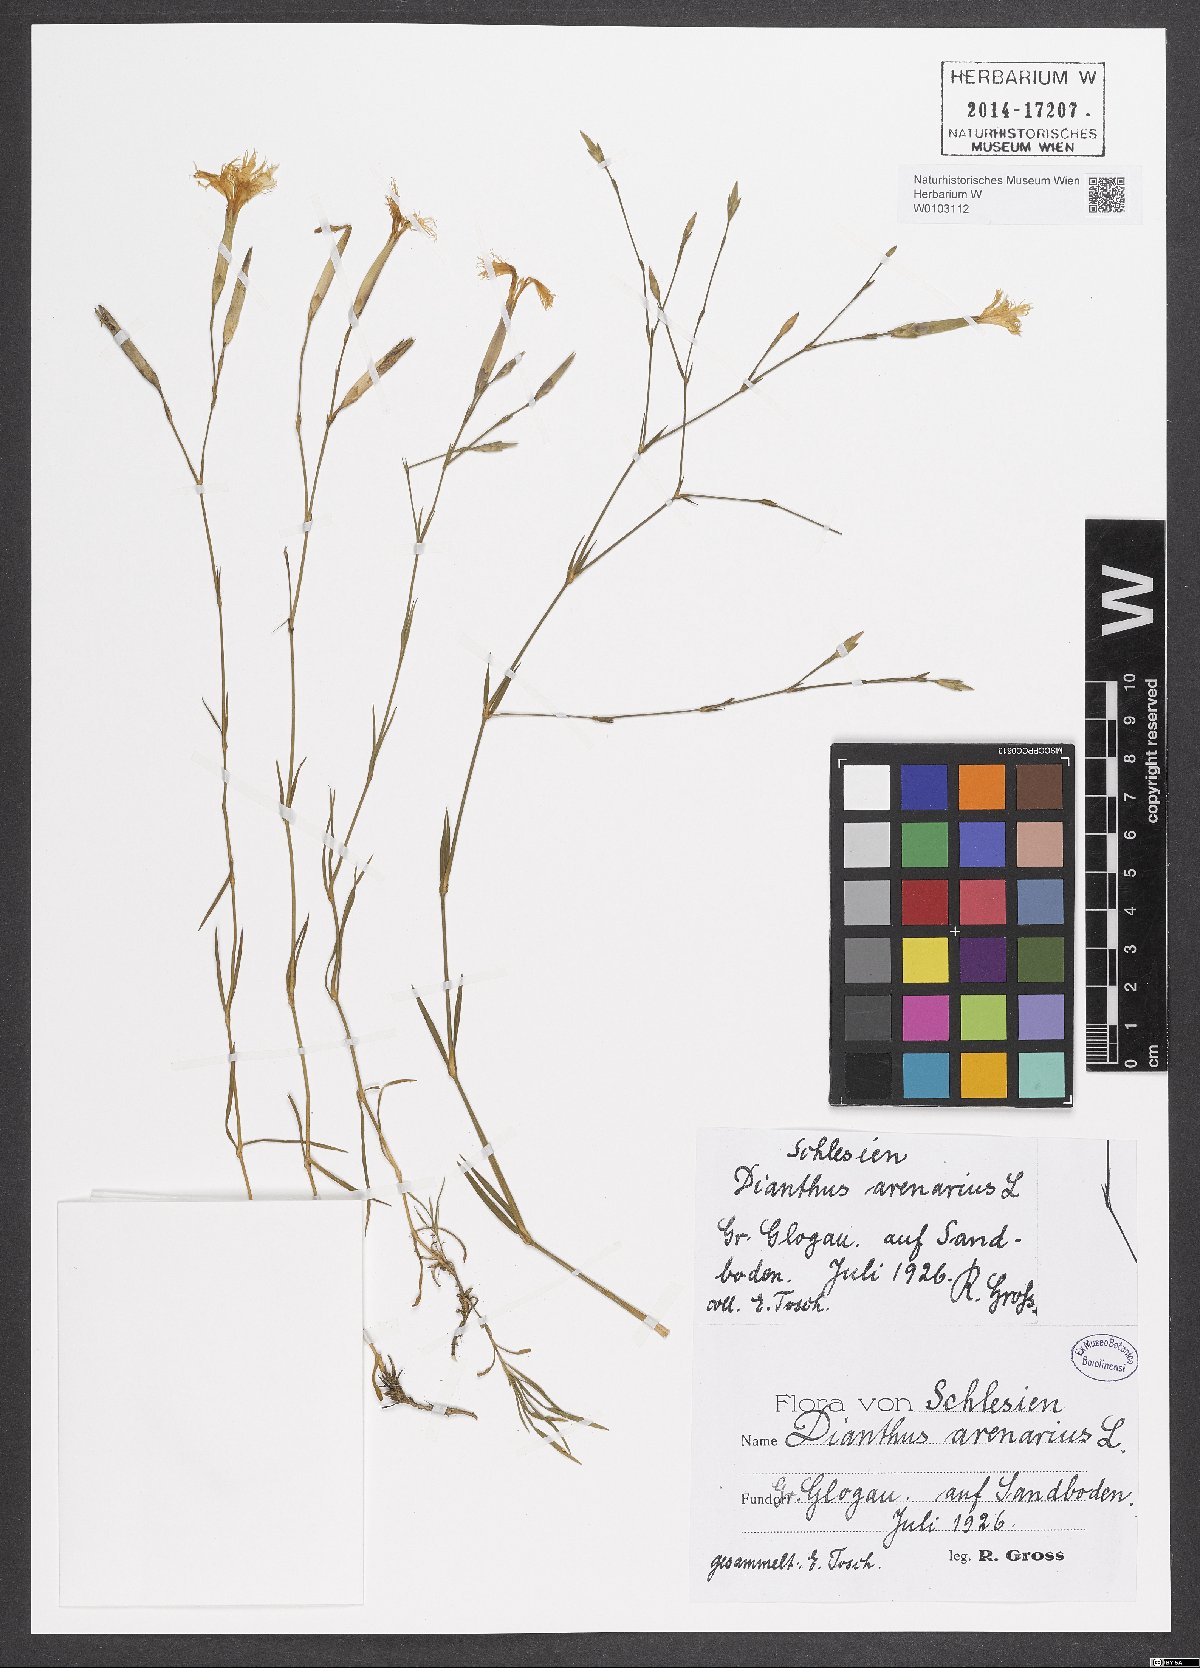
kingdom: Plantae
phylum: Tracheophyta
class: Magnoliopsida
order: Caryophyllales
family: Caryophyllaceae
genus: Dianthus
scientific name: Dianthus arenarius
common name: Stone pink
